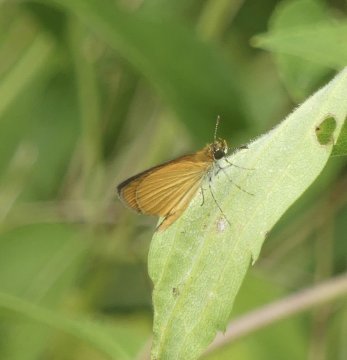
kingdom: Animalia
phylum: Arthropoda
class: Insecta
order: Lepidoptera
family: Hesperiidae
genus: Ancyloxypha
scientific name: Ancyloxypha numitor
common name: Least Skipper
